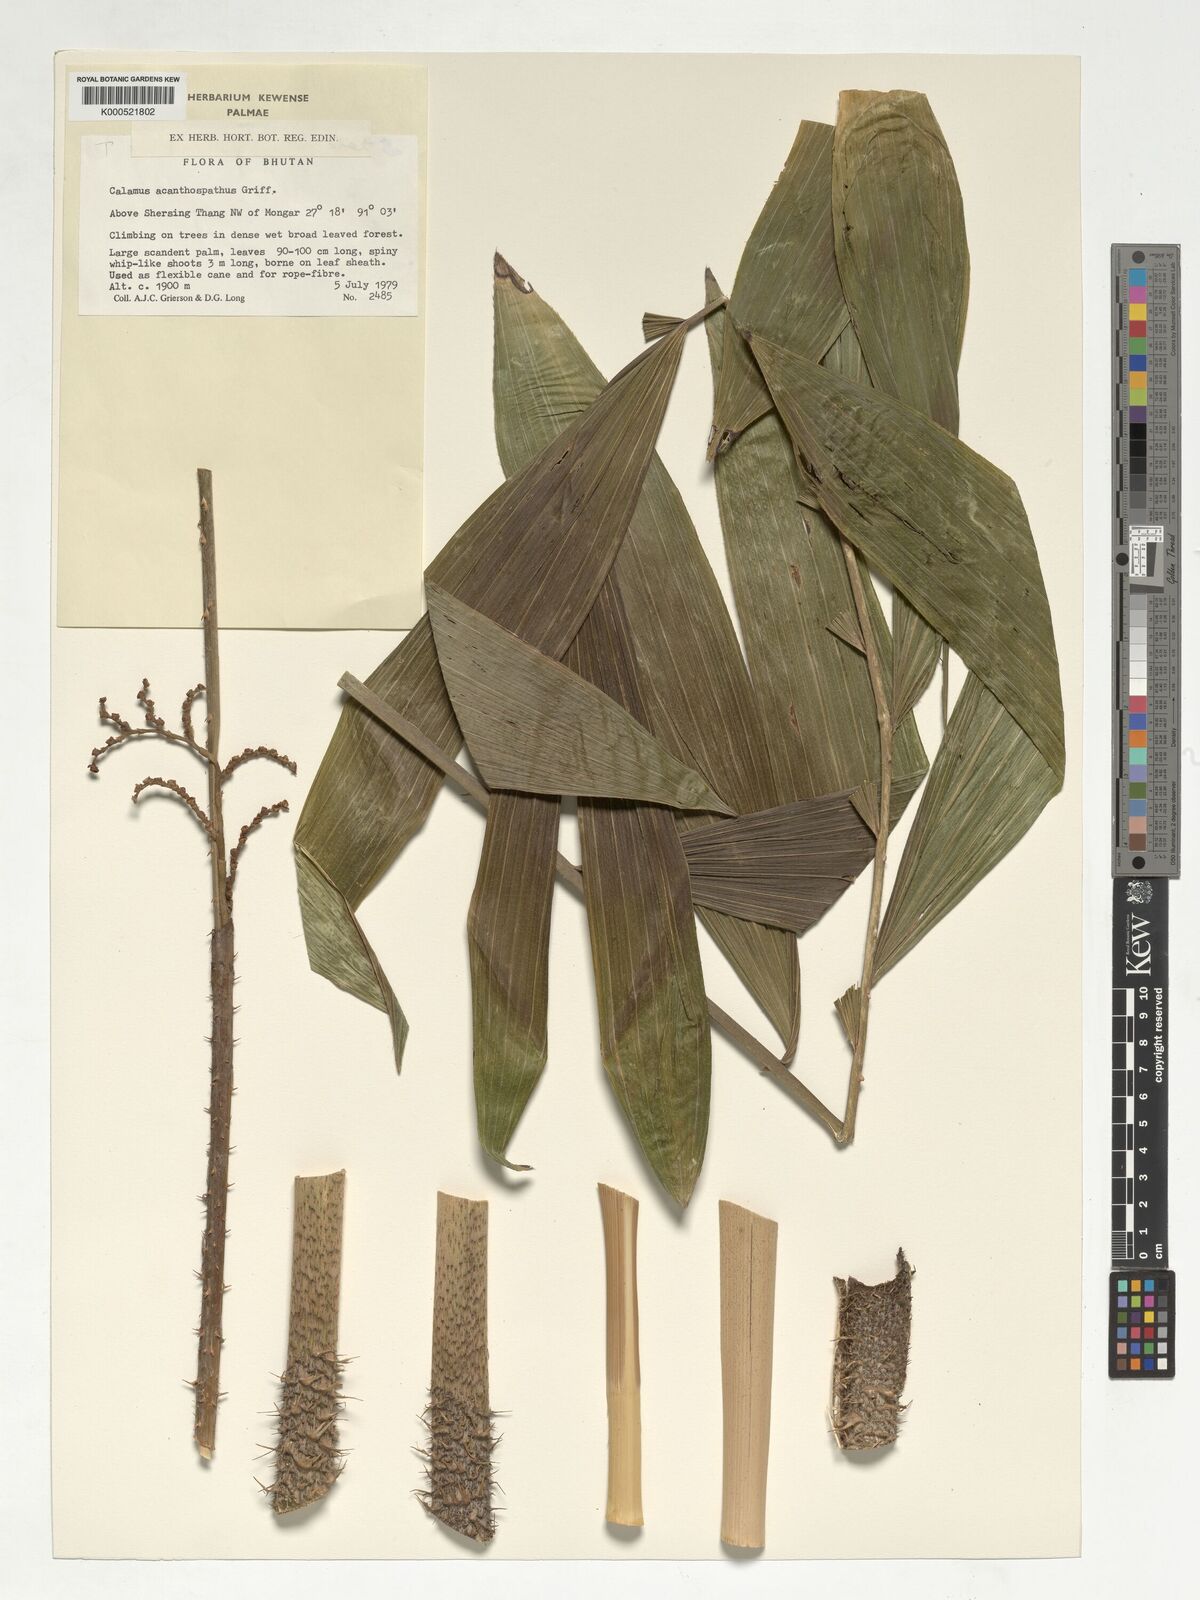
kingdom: Plantae
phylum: Tracheophyta
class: Liliopsida
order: Arecales
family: Arecaceae
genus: Calamus
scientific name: Calamus acanthospathus
